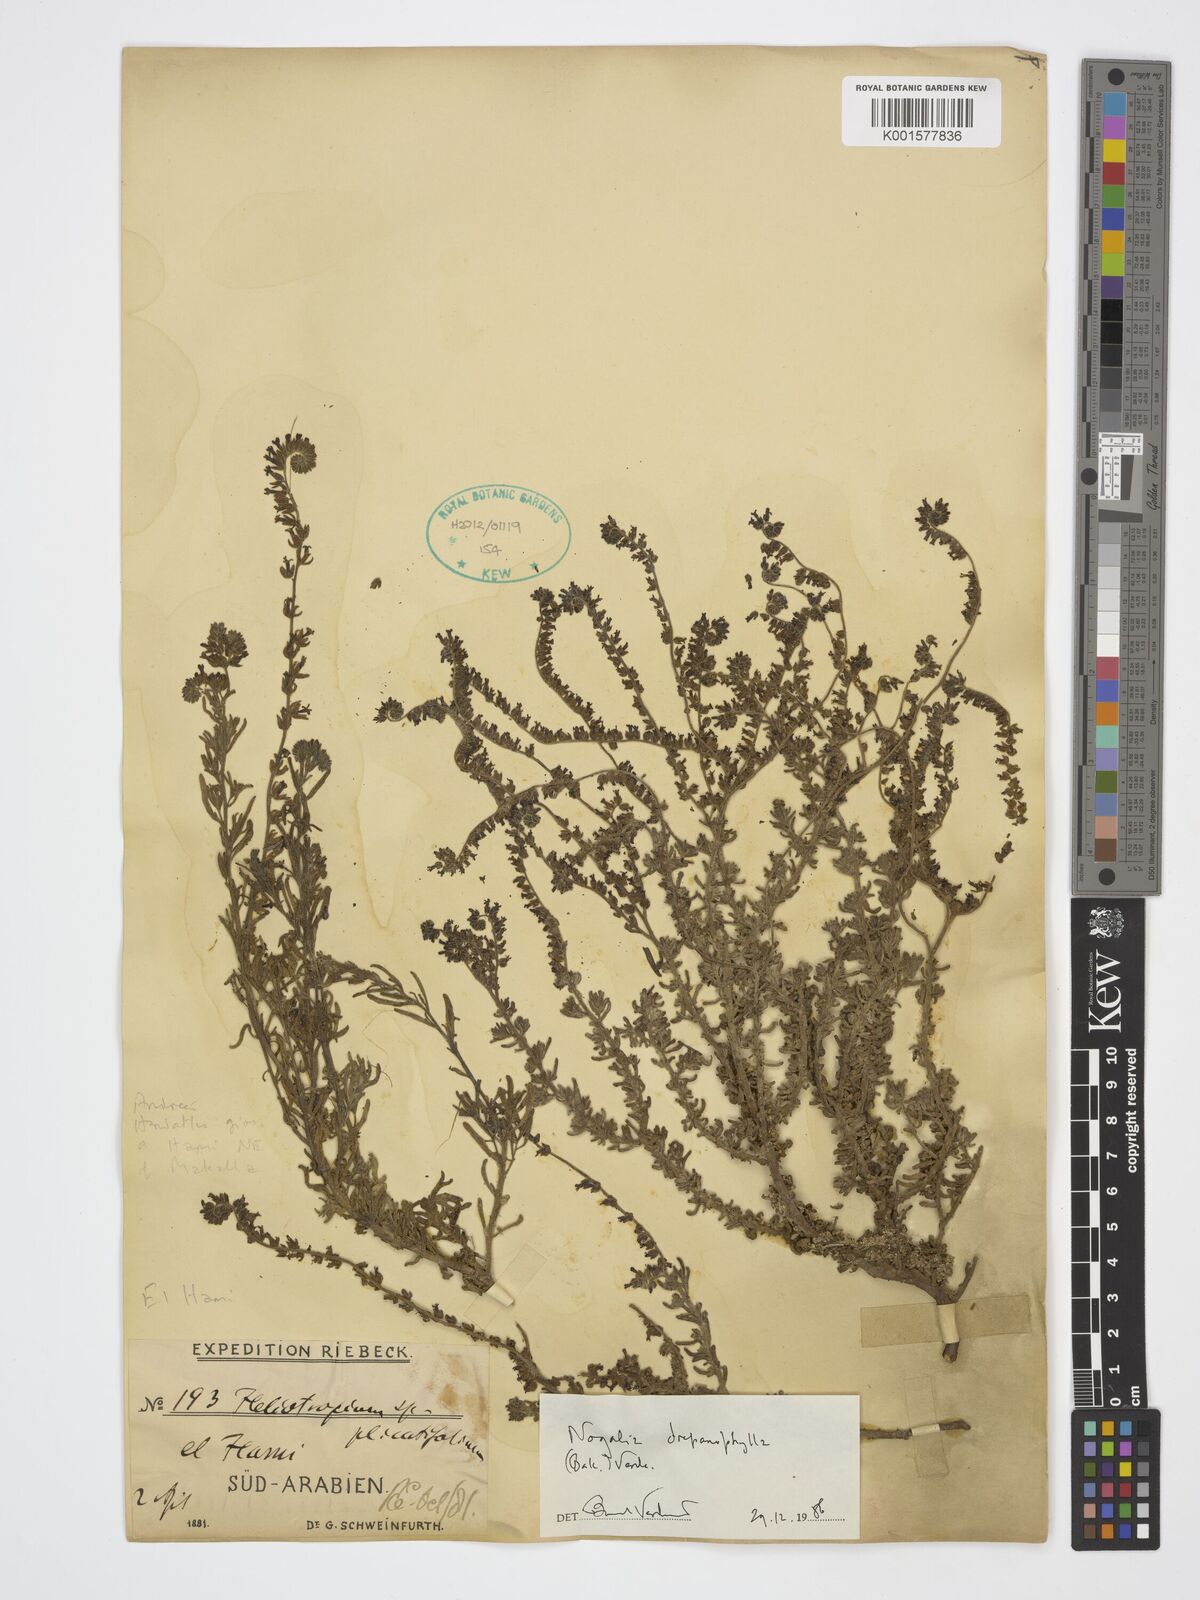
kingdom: Plantae
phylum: Tracheophyta
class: Magnoliopsida
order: Boraginales
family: Heliotropiaceae
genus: Heliotropium
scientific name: Heliotropium drepanophyllum
